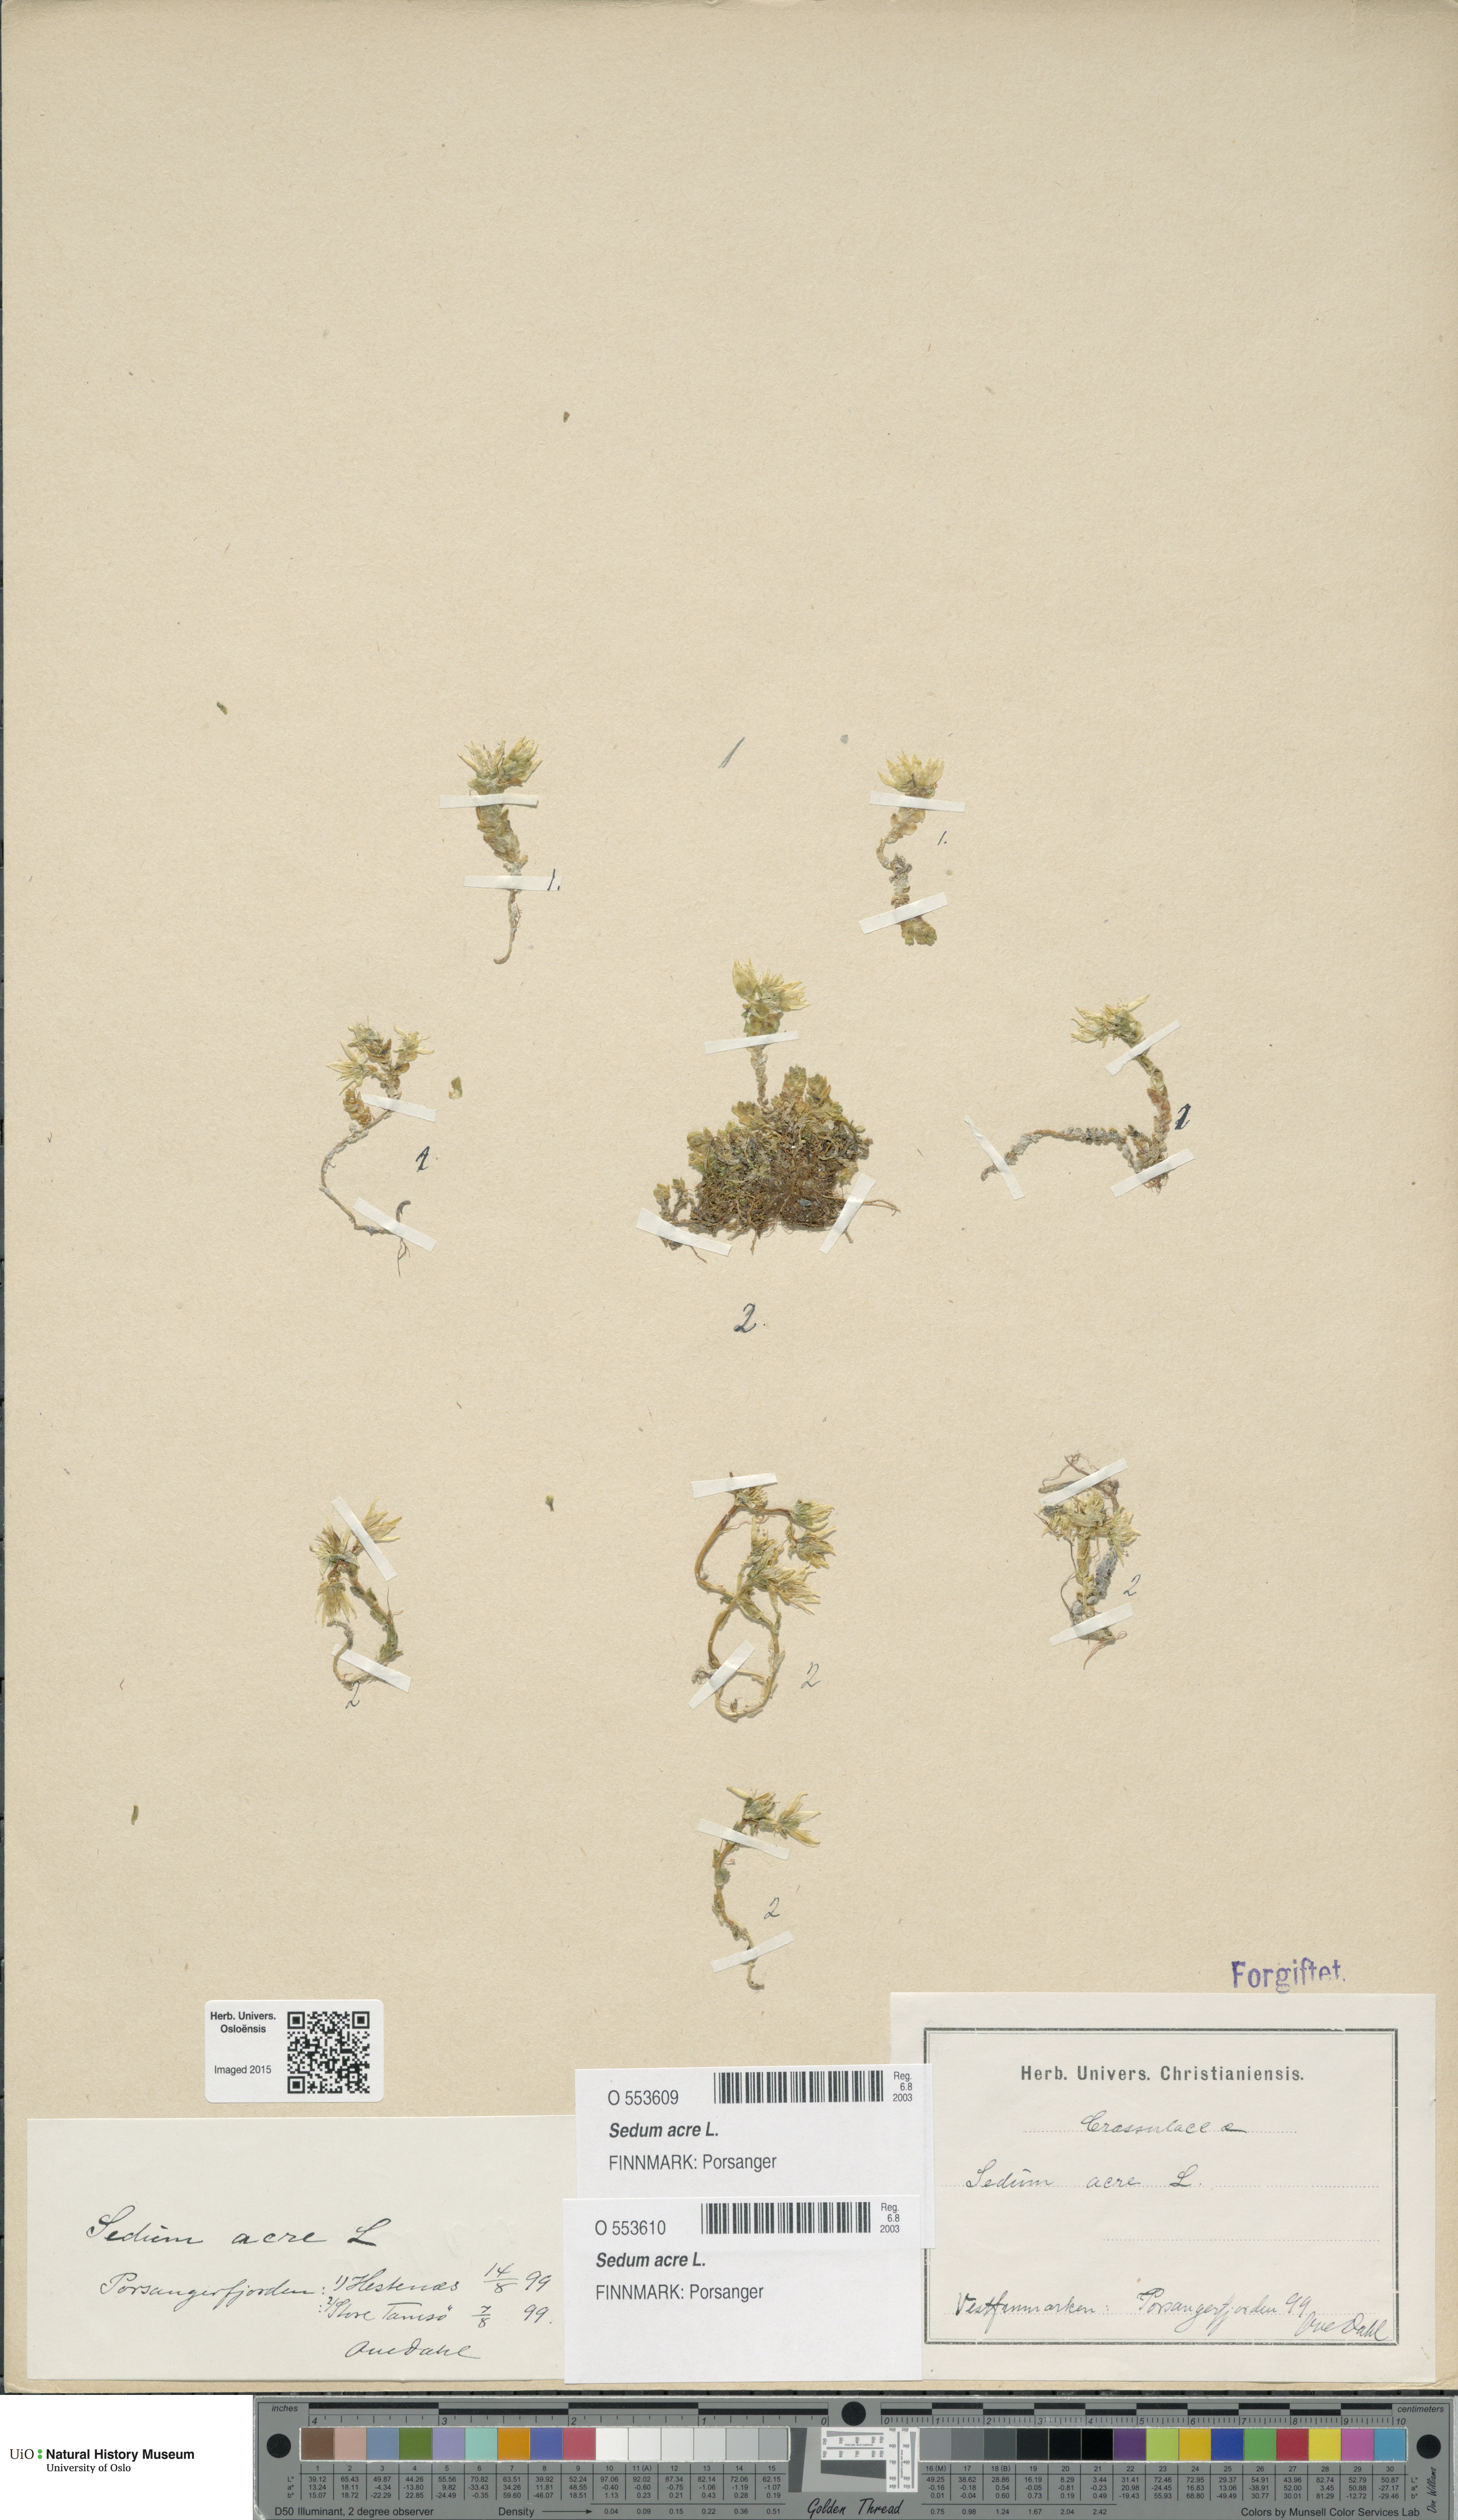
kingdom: Plantae
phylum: Tracheophyta
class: Magnoliopsida
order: Saxifragales
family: Crassulaceae
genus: Sedum
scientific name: Sedum acre
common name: Biting stonecrop
